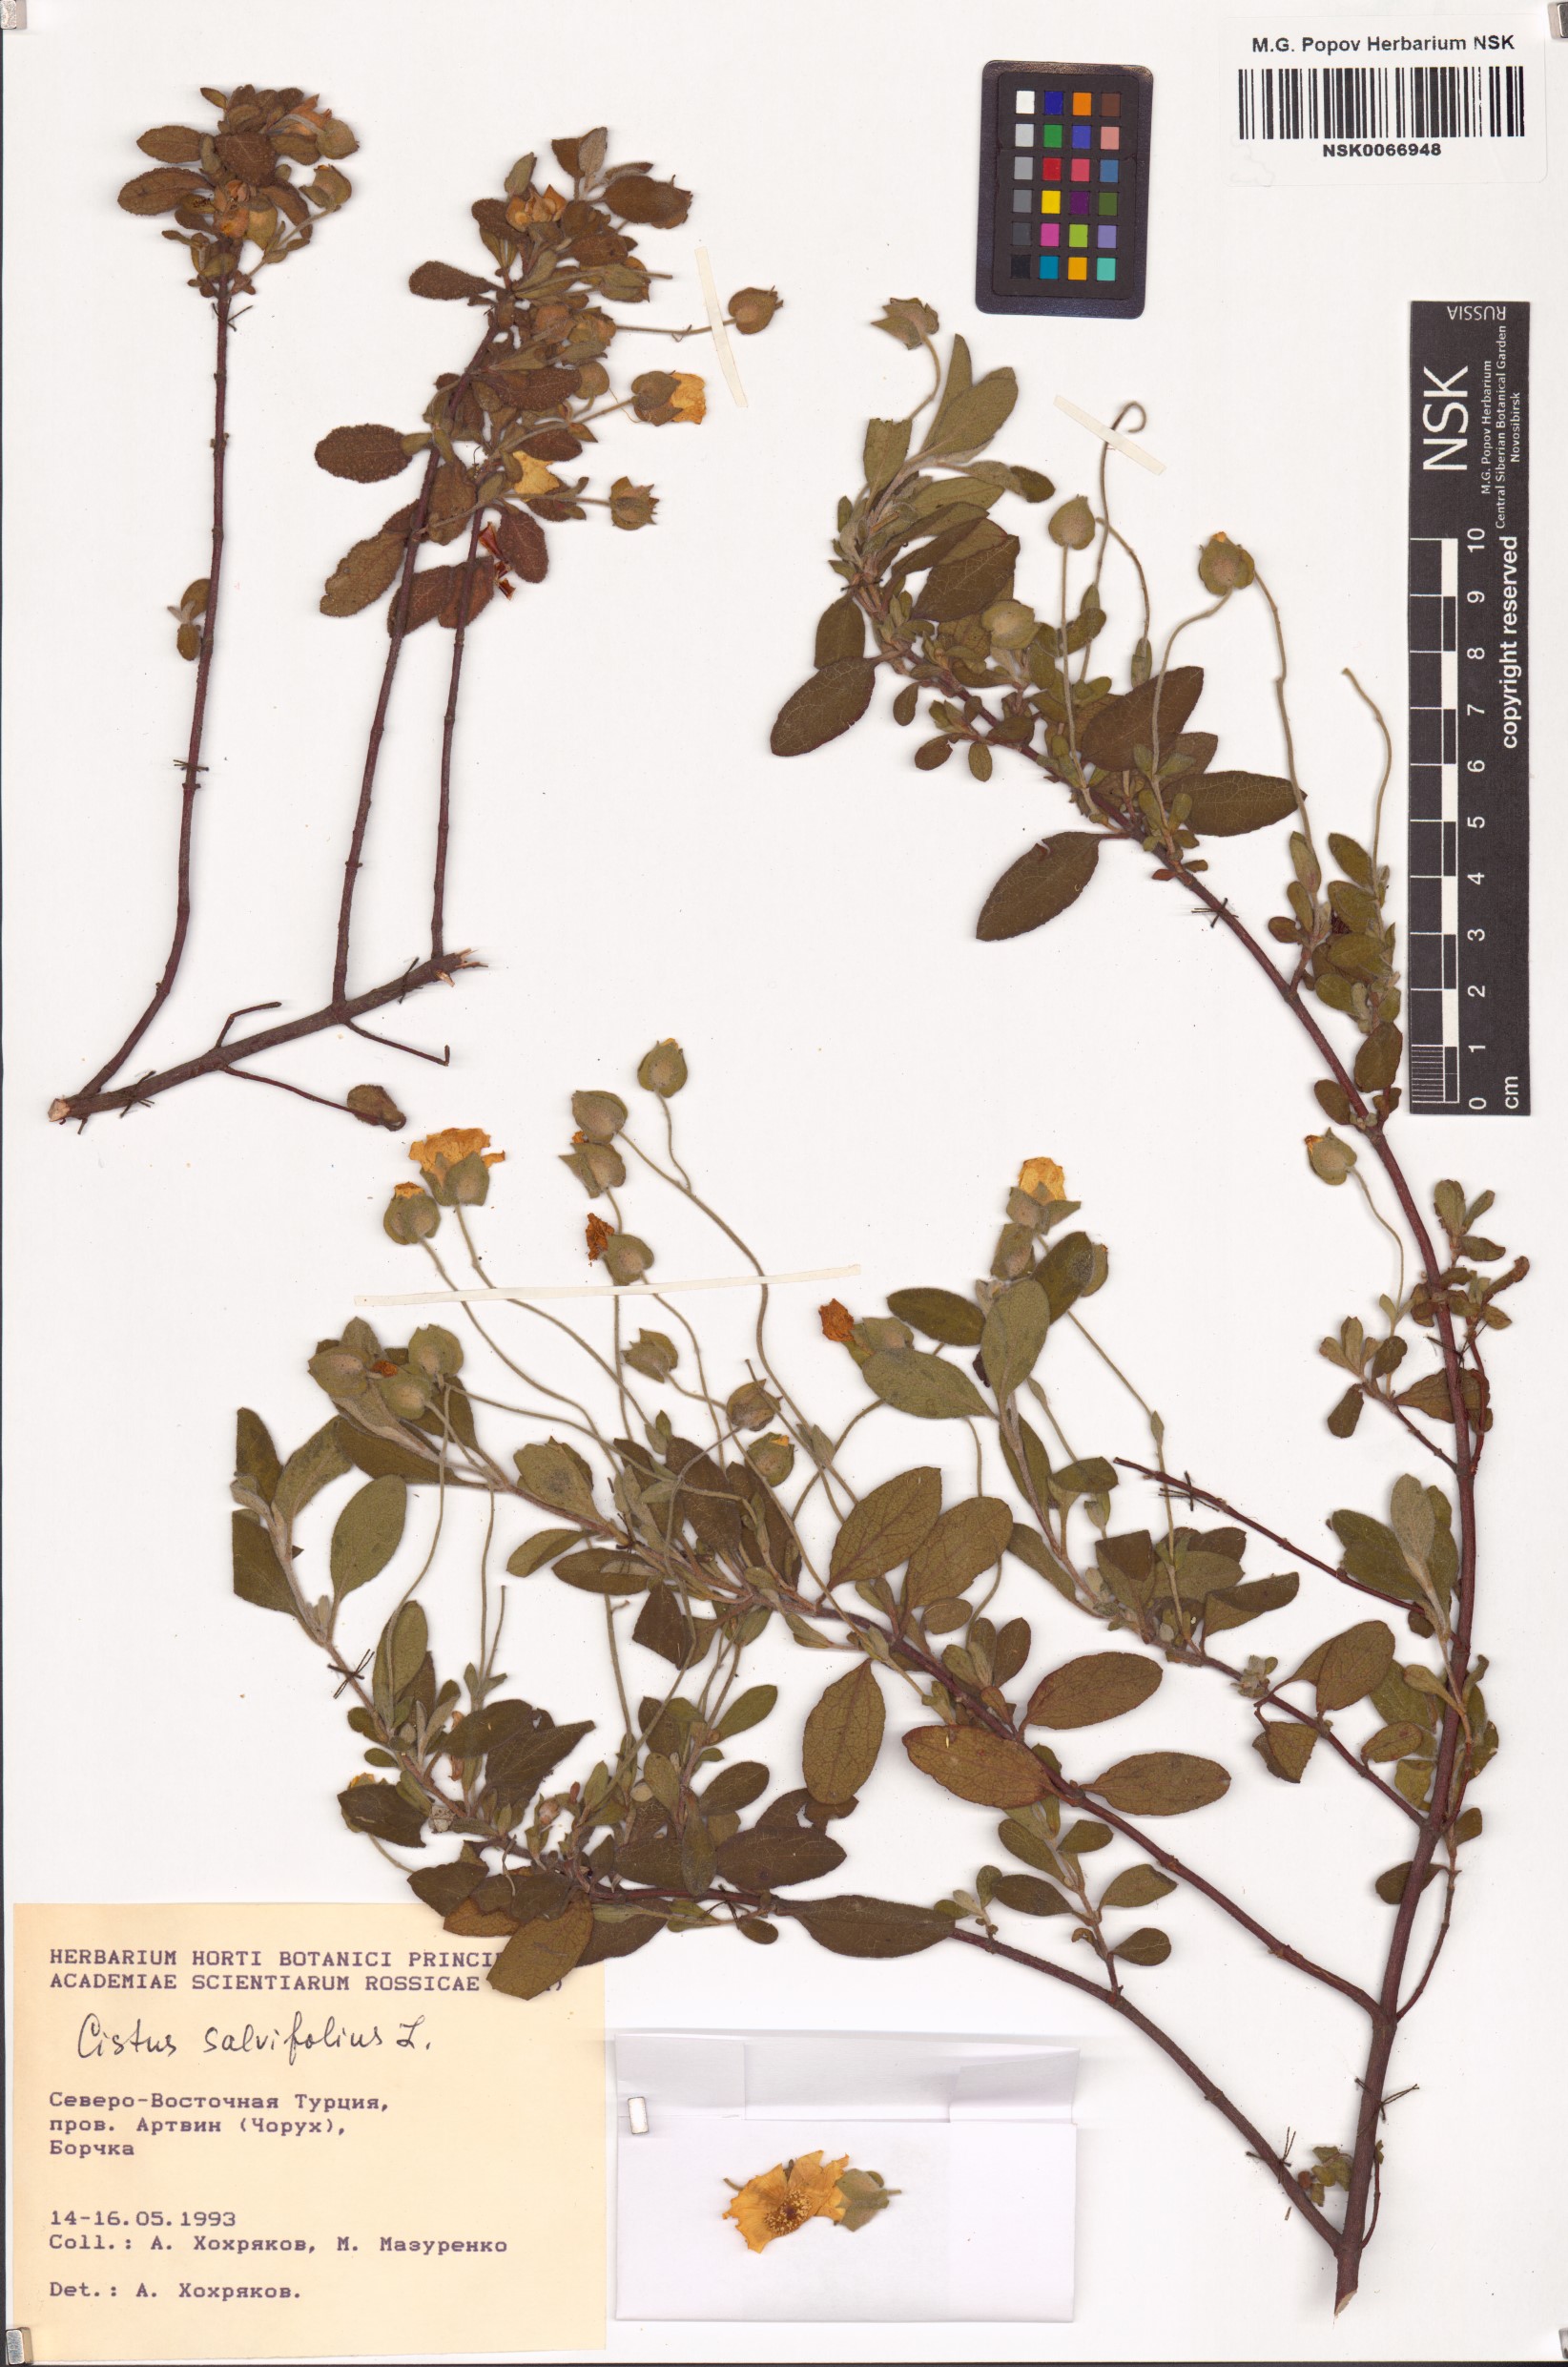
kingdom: Plantae
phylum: Tracheophyta
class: Magnoliopsida
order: Malvales
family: Cistaceae
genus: Cistus
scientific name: Cistus salviifolius
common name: Salvia cistus
